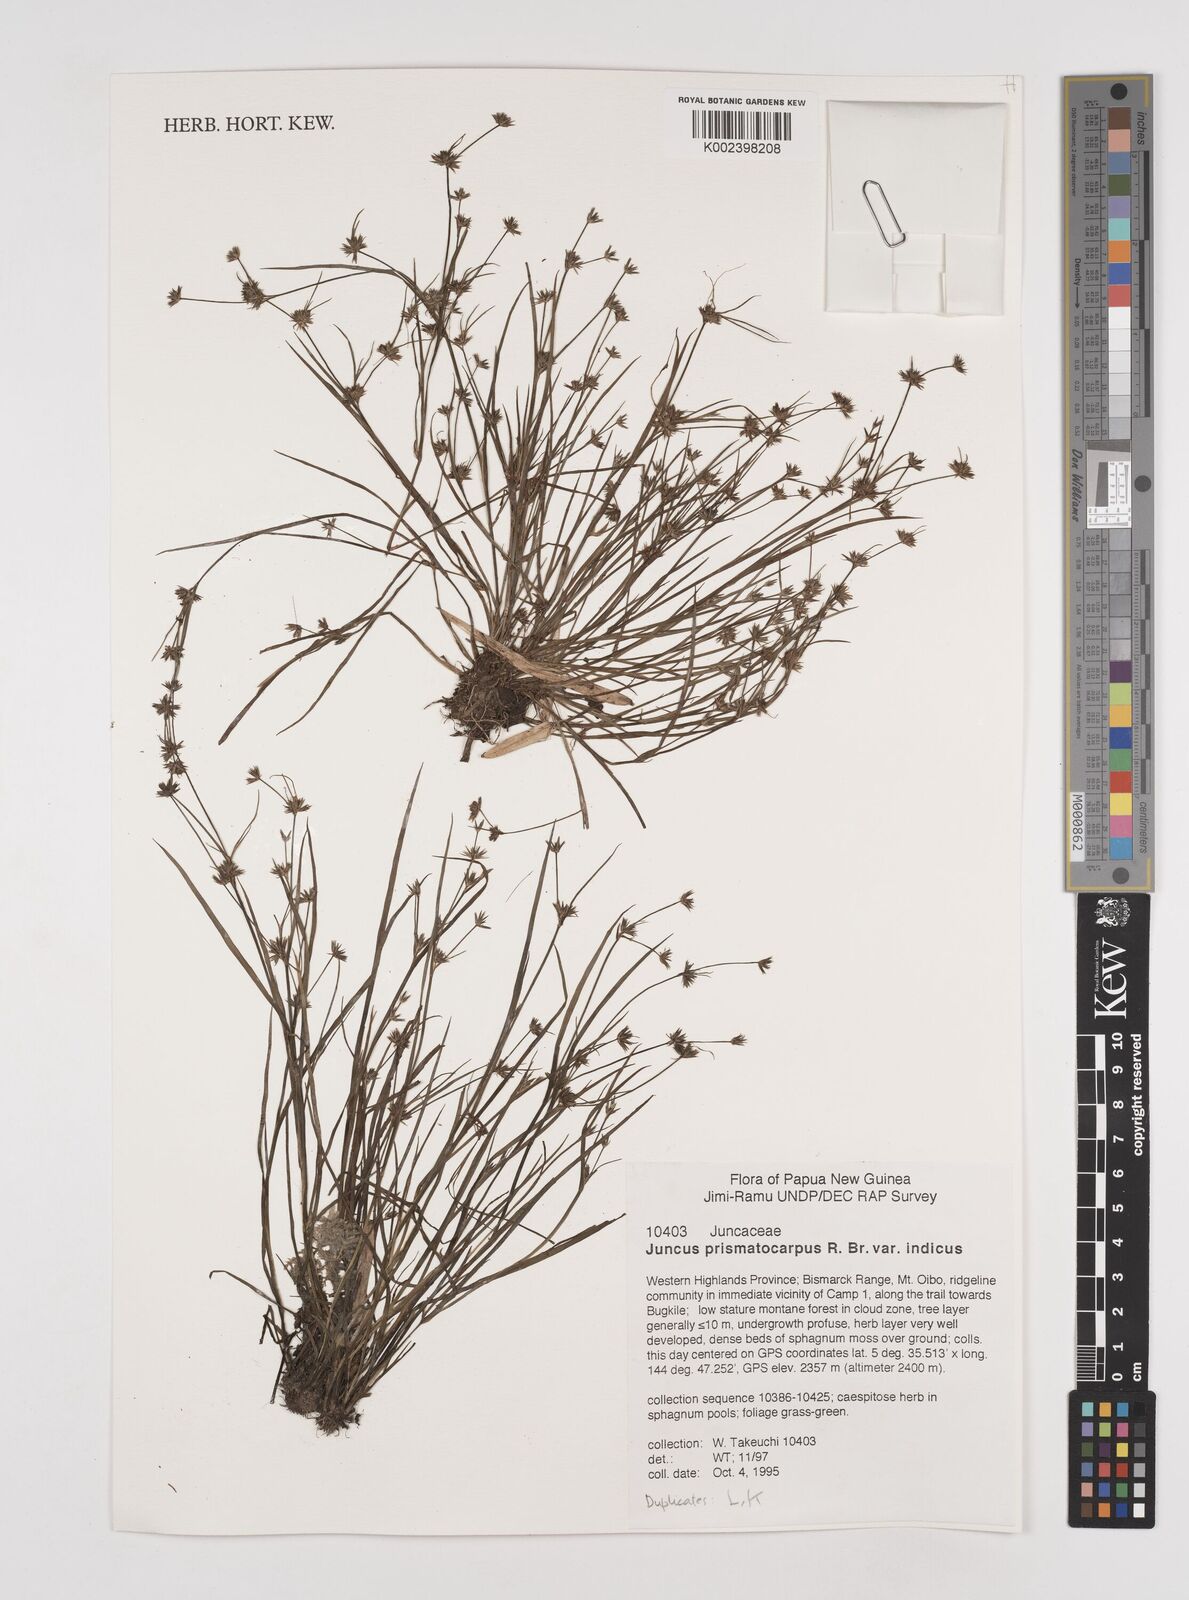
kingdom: Plantae
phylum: Tracheophyta
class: Liliopsida
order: Poales
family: Juncaceae
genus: Juncus
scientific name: Juncus prismatocarpus
